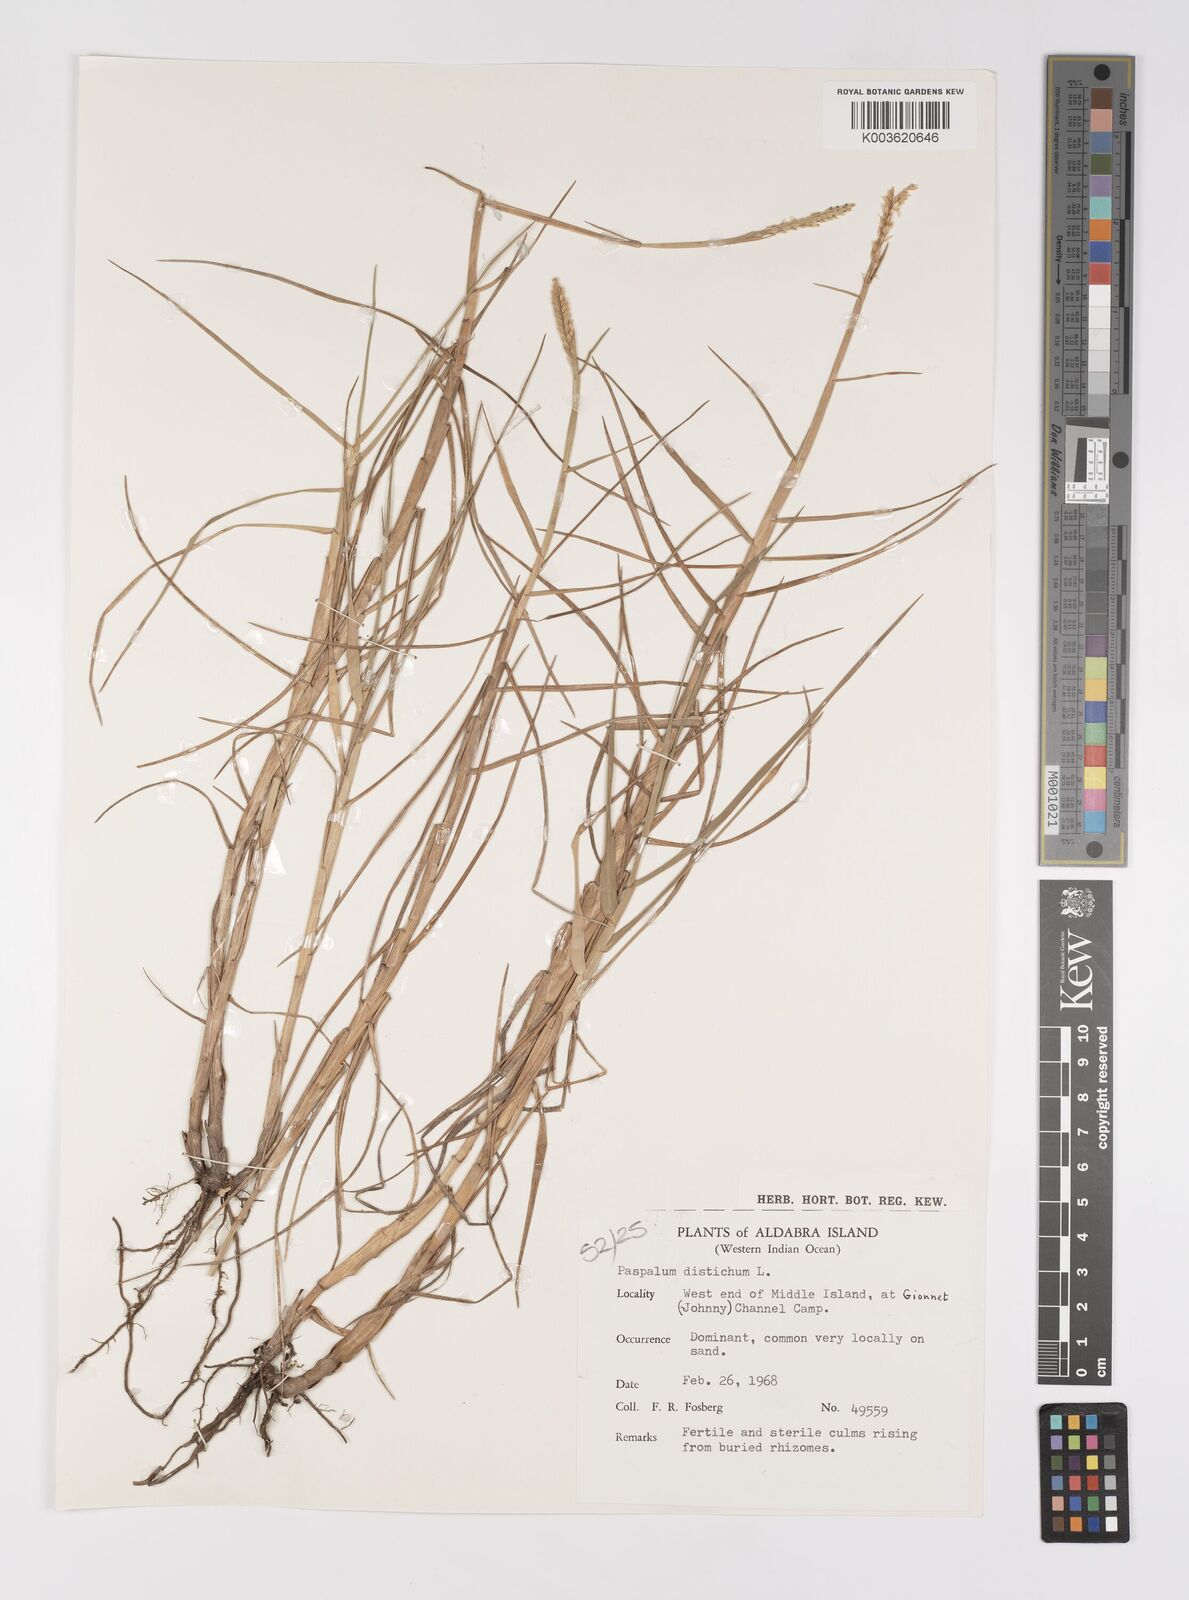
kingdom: Plantae
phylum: Tracheophyta
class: Liliopsida
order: Poales
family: Poaceae
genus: Paspalum
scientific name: Paspalum vaginatum
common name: Seashore paspalum
